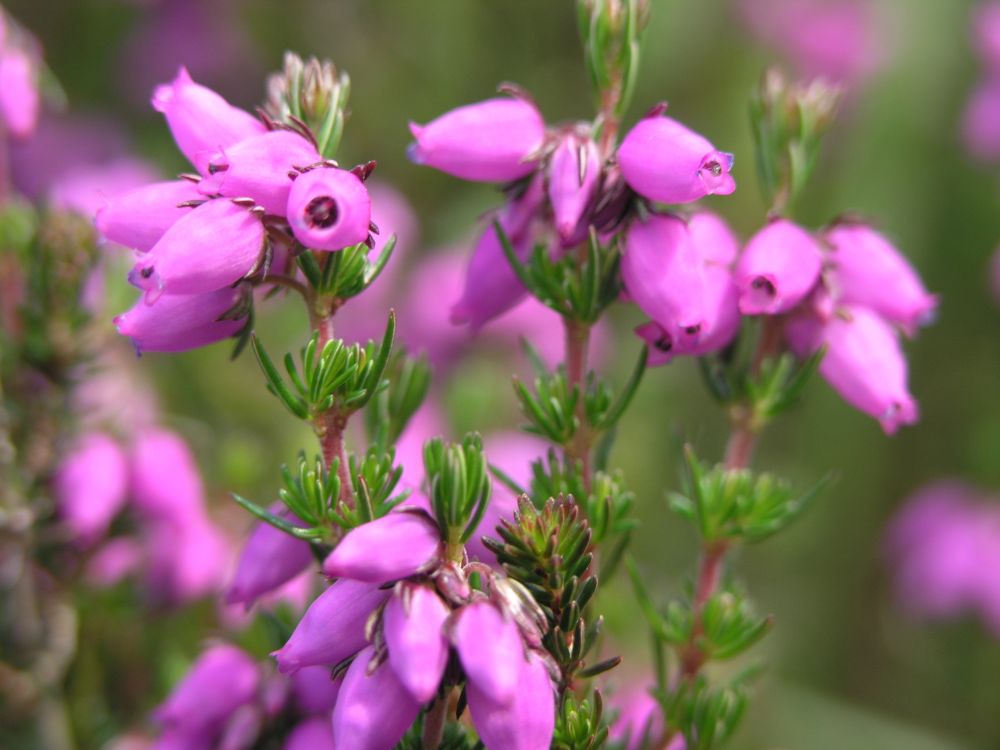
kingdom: Plantae
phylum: Tracheophyta
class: Magnoliopsida
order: Ericales
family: Ericaceae
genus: Erica
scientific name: Erica cinerea
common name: Bell heather
